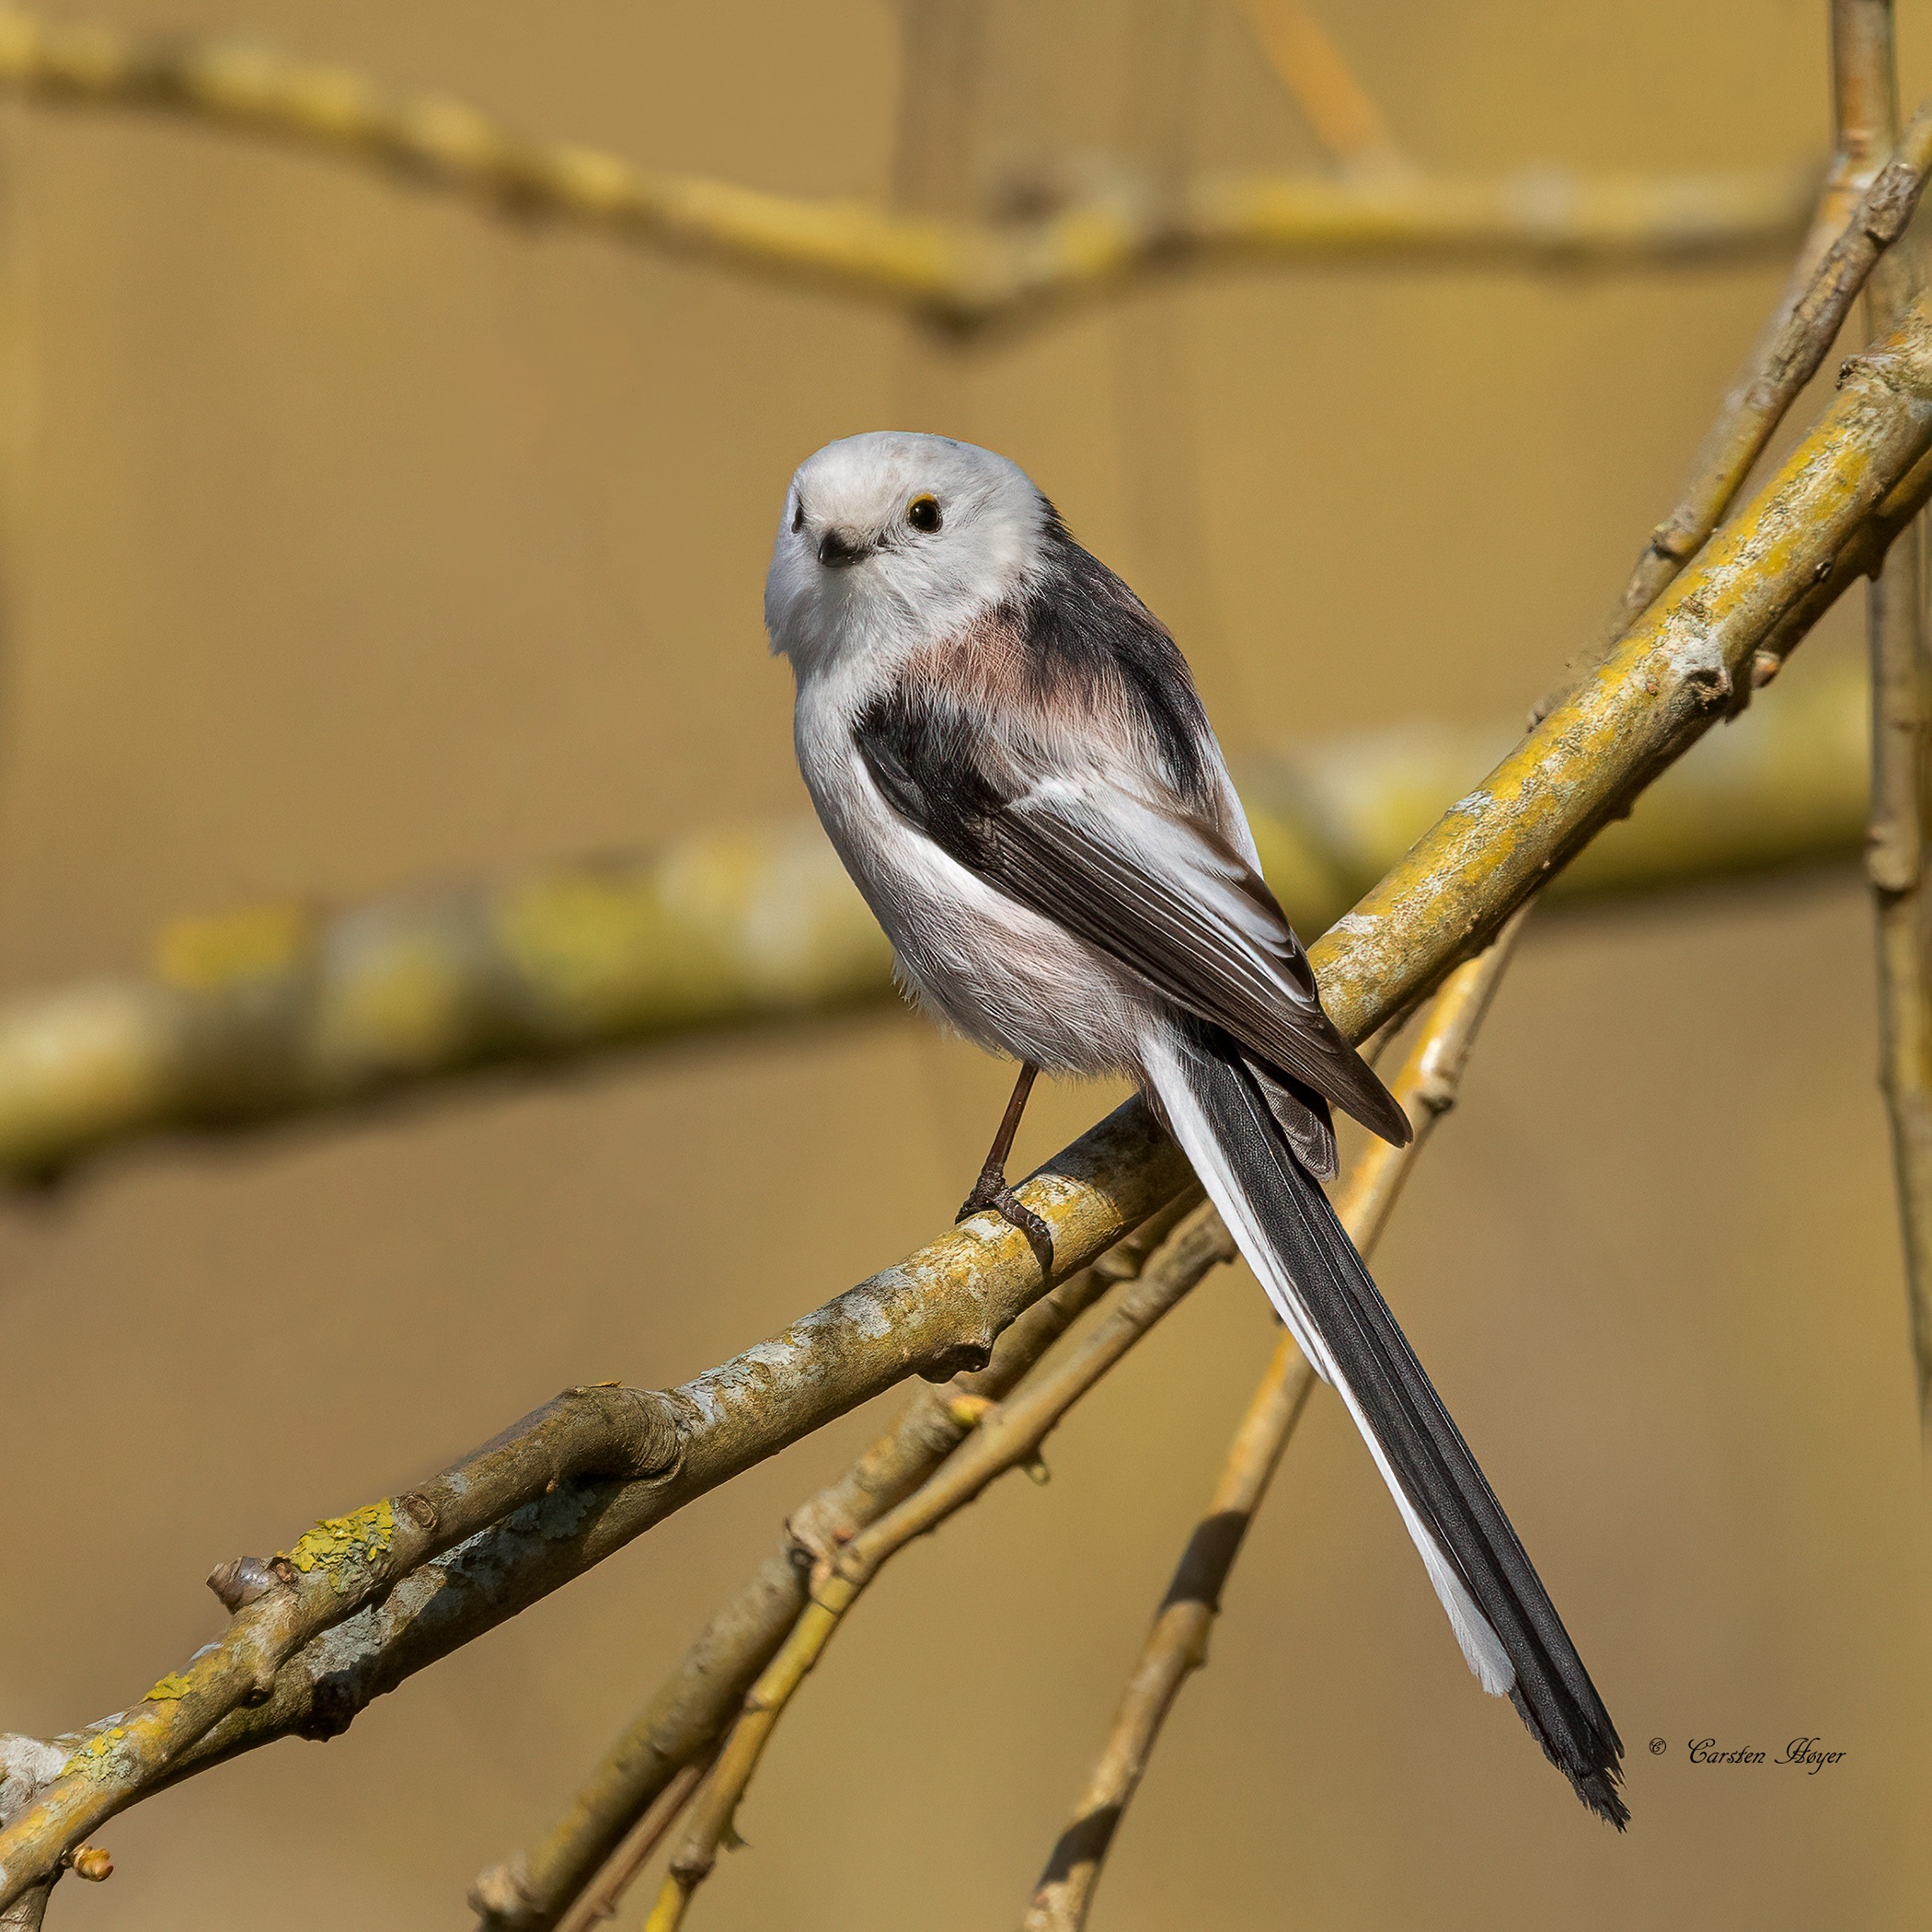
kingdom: Animalia
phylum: Chordata
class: Aves
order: Passeriformes
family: Aegithalidae
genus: Aegithalos
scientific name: Aegithalos caudatus
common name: Halemejse
